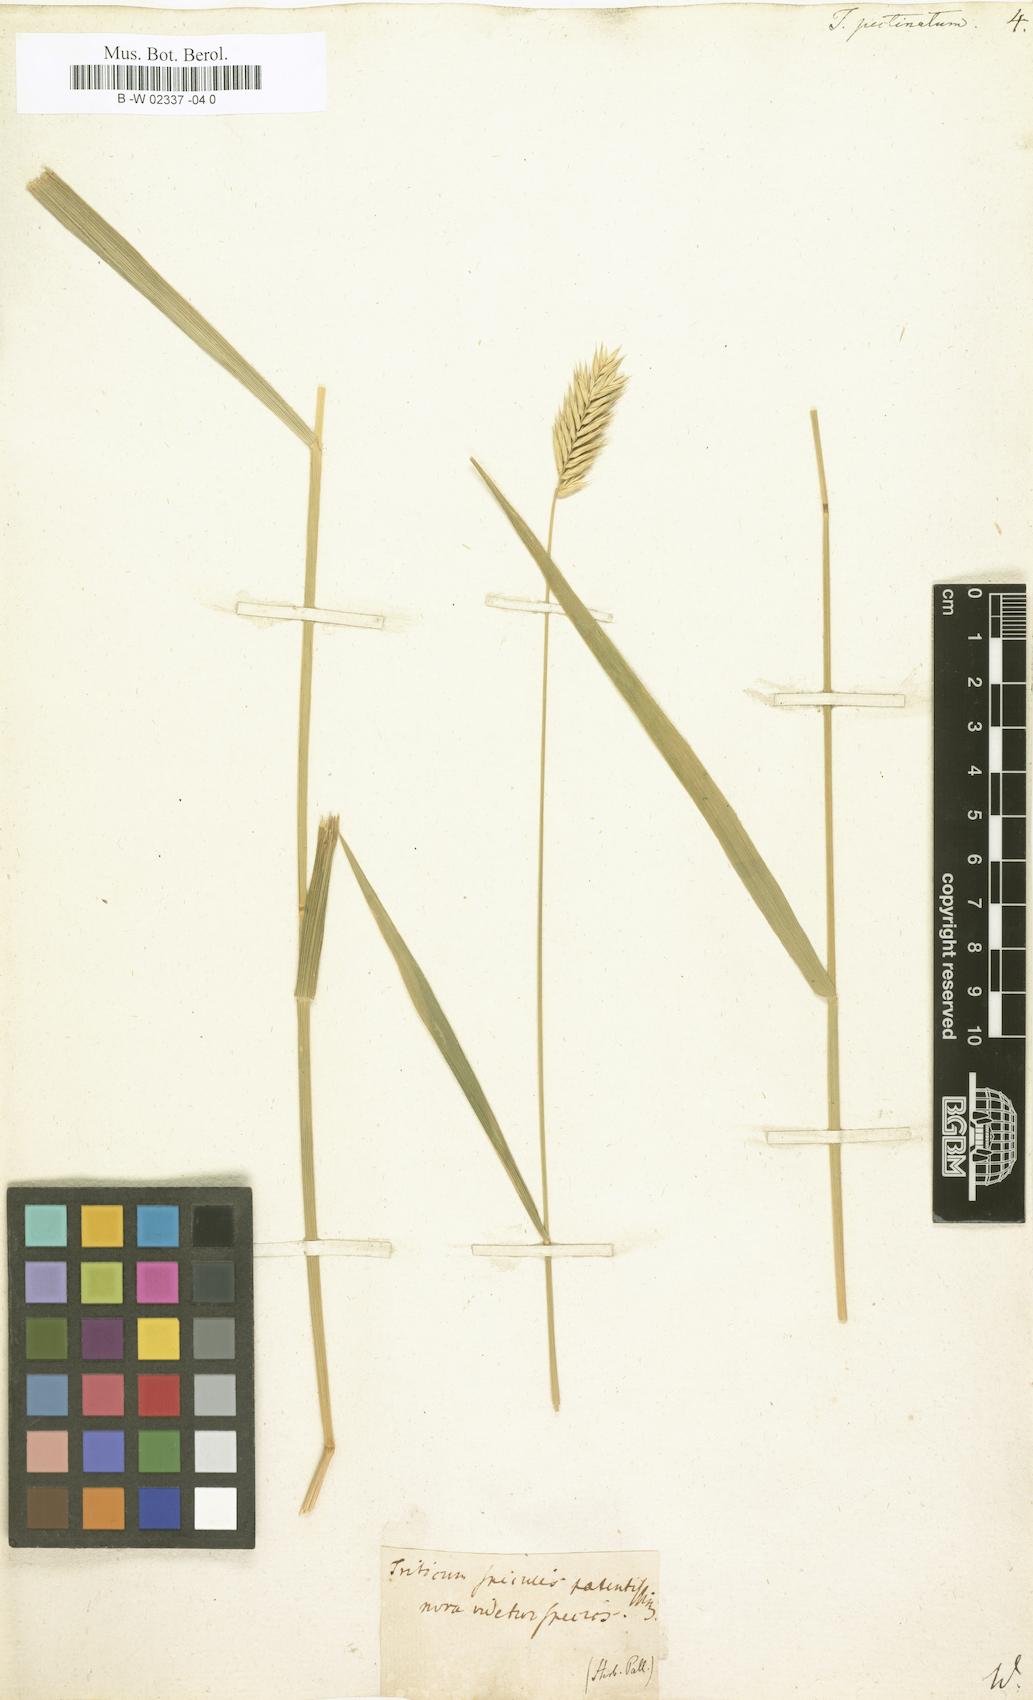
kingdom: Plantae
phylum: Tracheophyta
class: Liliopsida
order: Poales
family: Poaceae
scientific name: Poaceae
